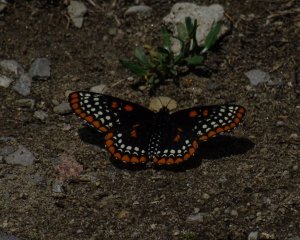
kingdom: Animalia
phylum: Arthropoda
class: Insecta
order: Lepidoptera
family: Nymphalidae
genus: Euphydryas
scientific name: Euphydryas phaeton
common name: Baltimore Checkerspot
